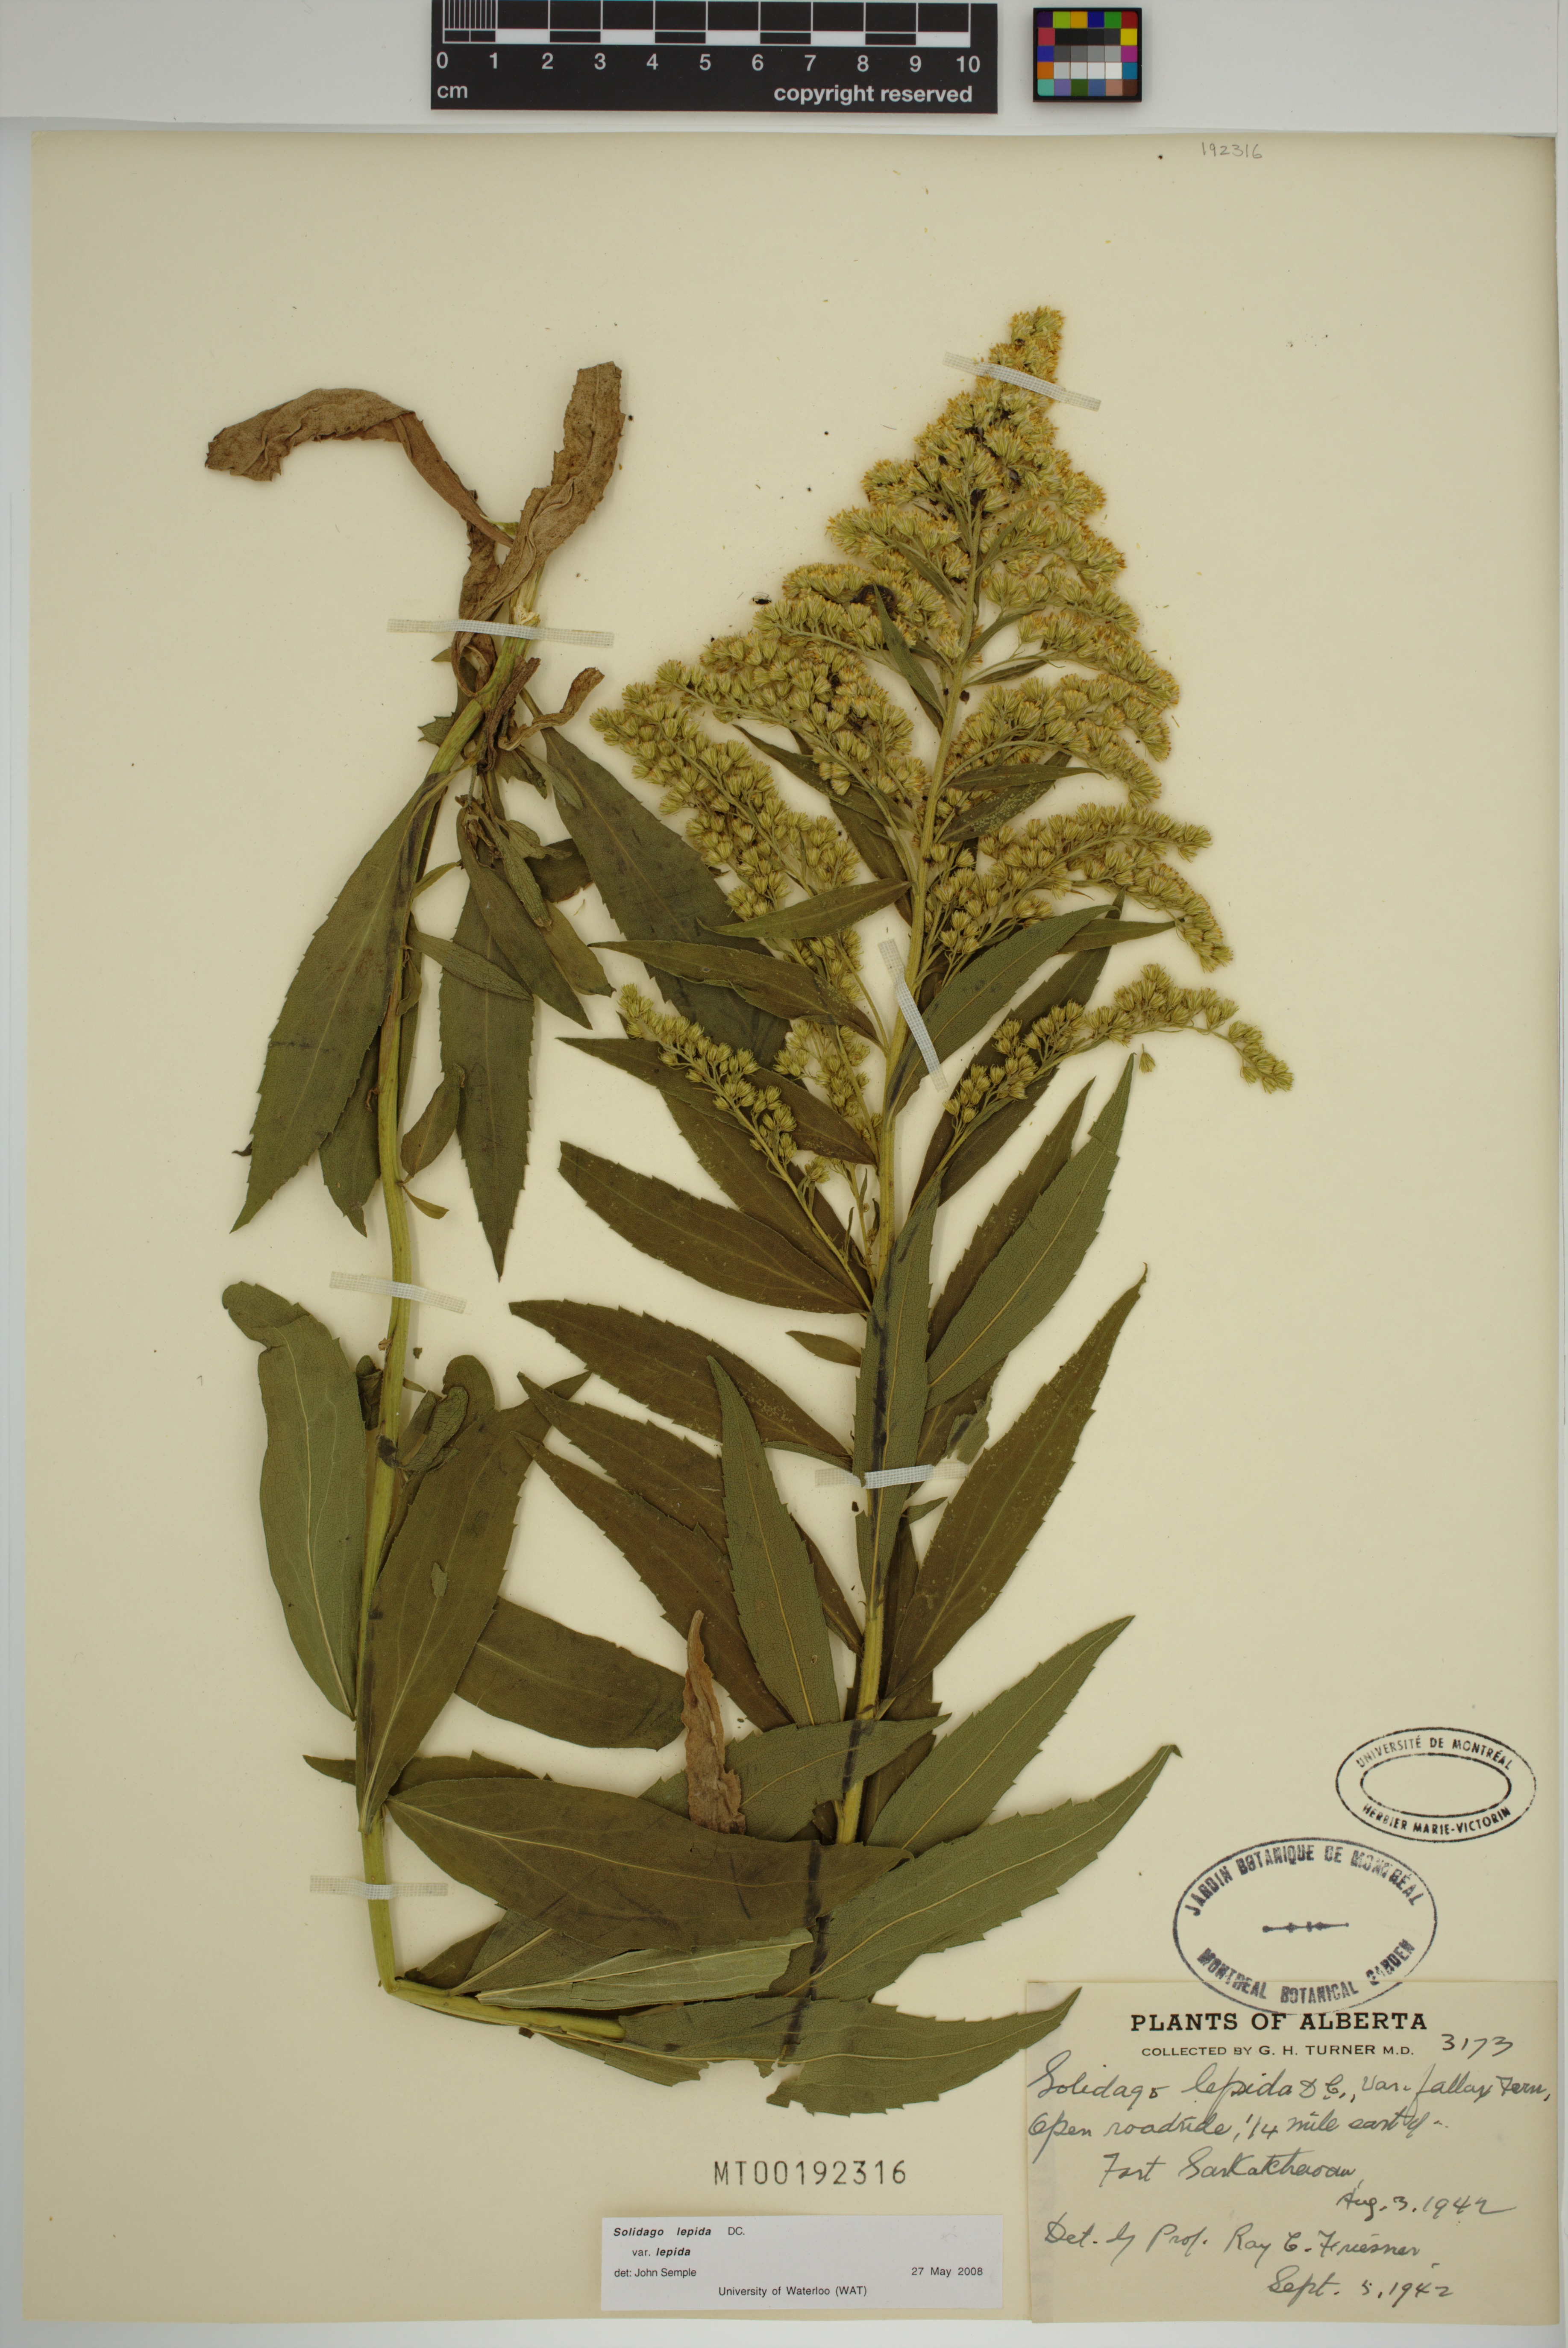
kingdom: Plantae
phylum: Tracheophyta
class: Magnoliopsida
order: Asterales
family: Asteraceae
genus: Solidago
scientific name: Solidago lepida
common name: Western canada goldenrod
